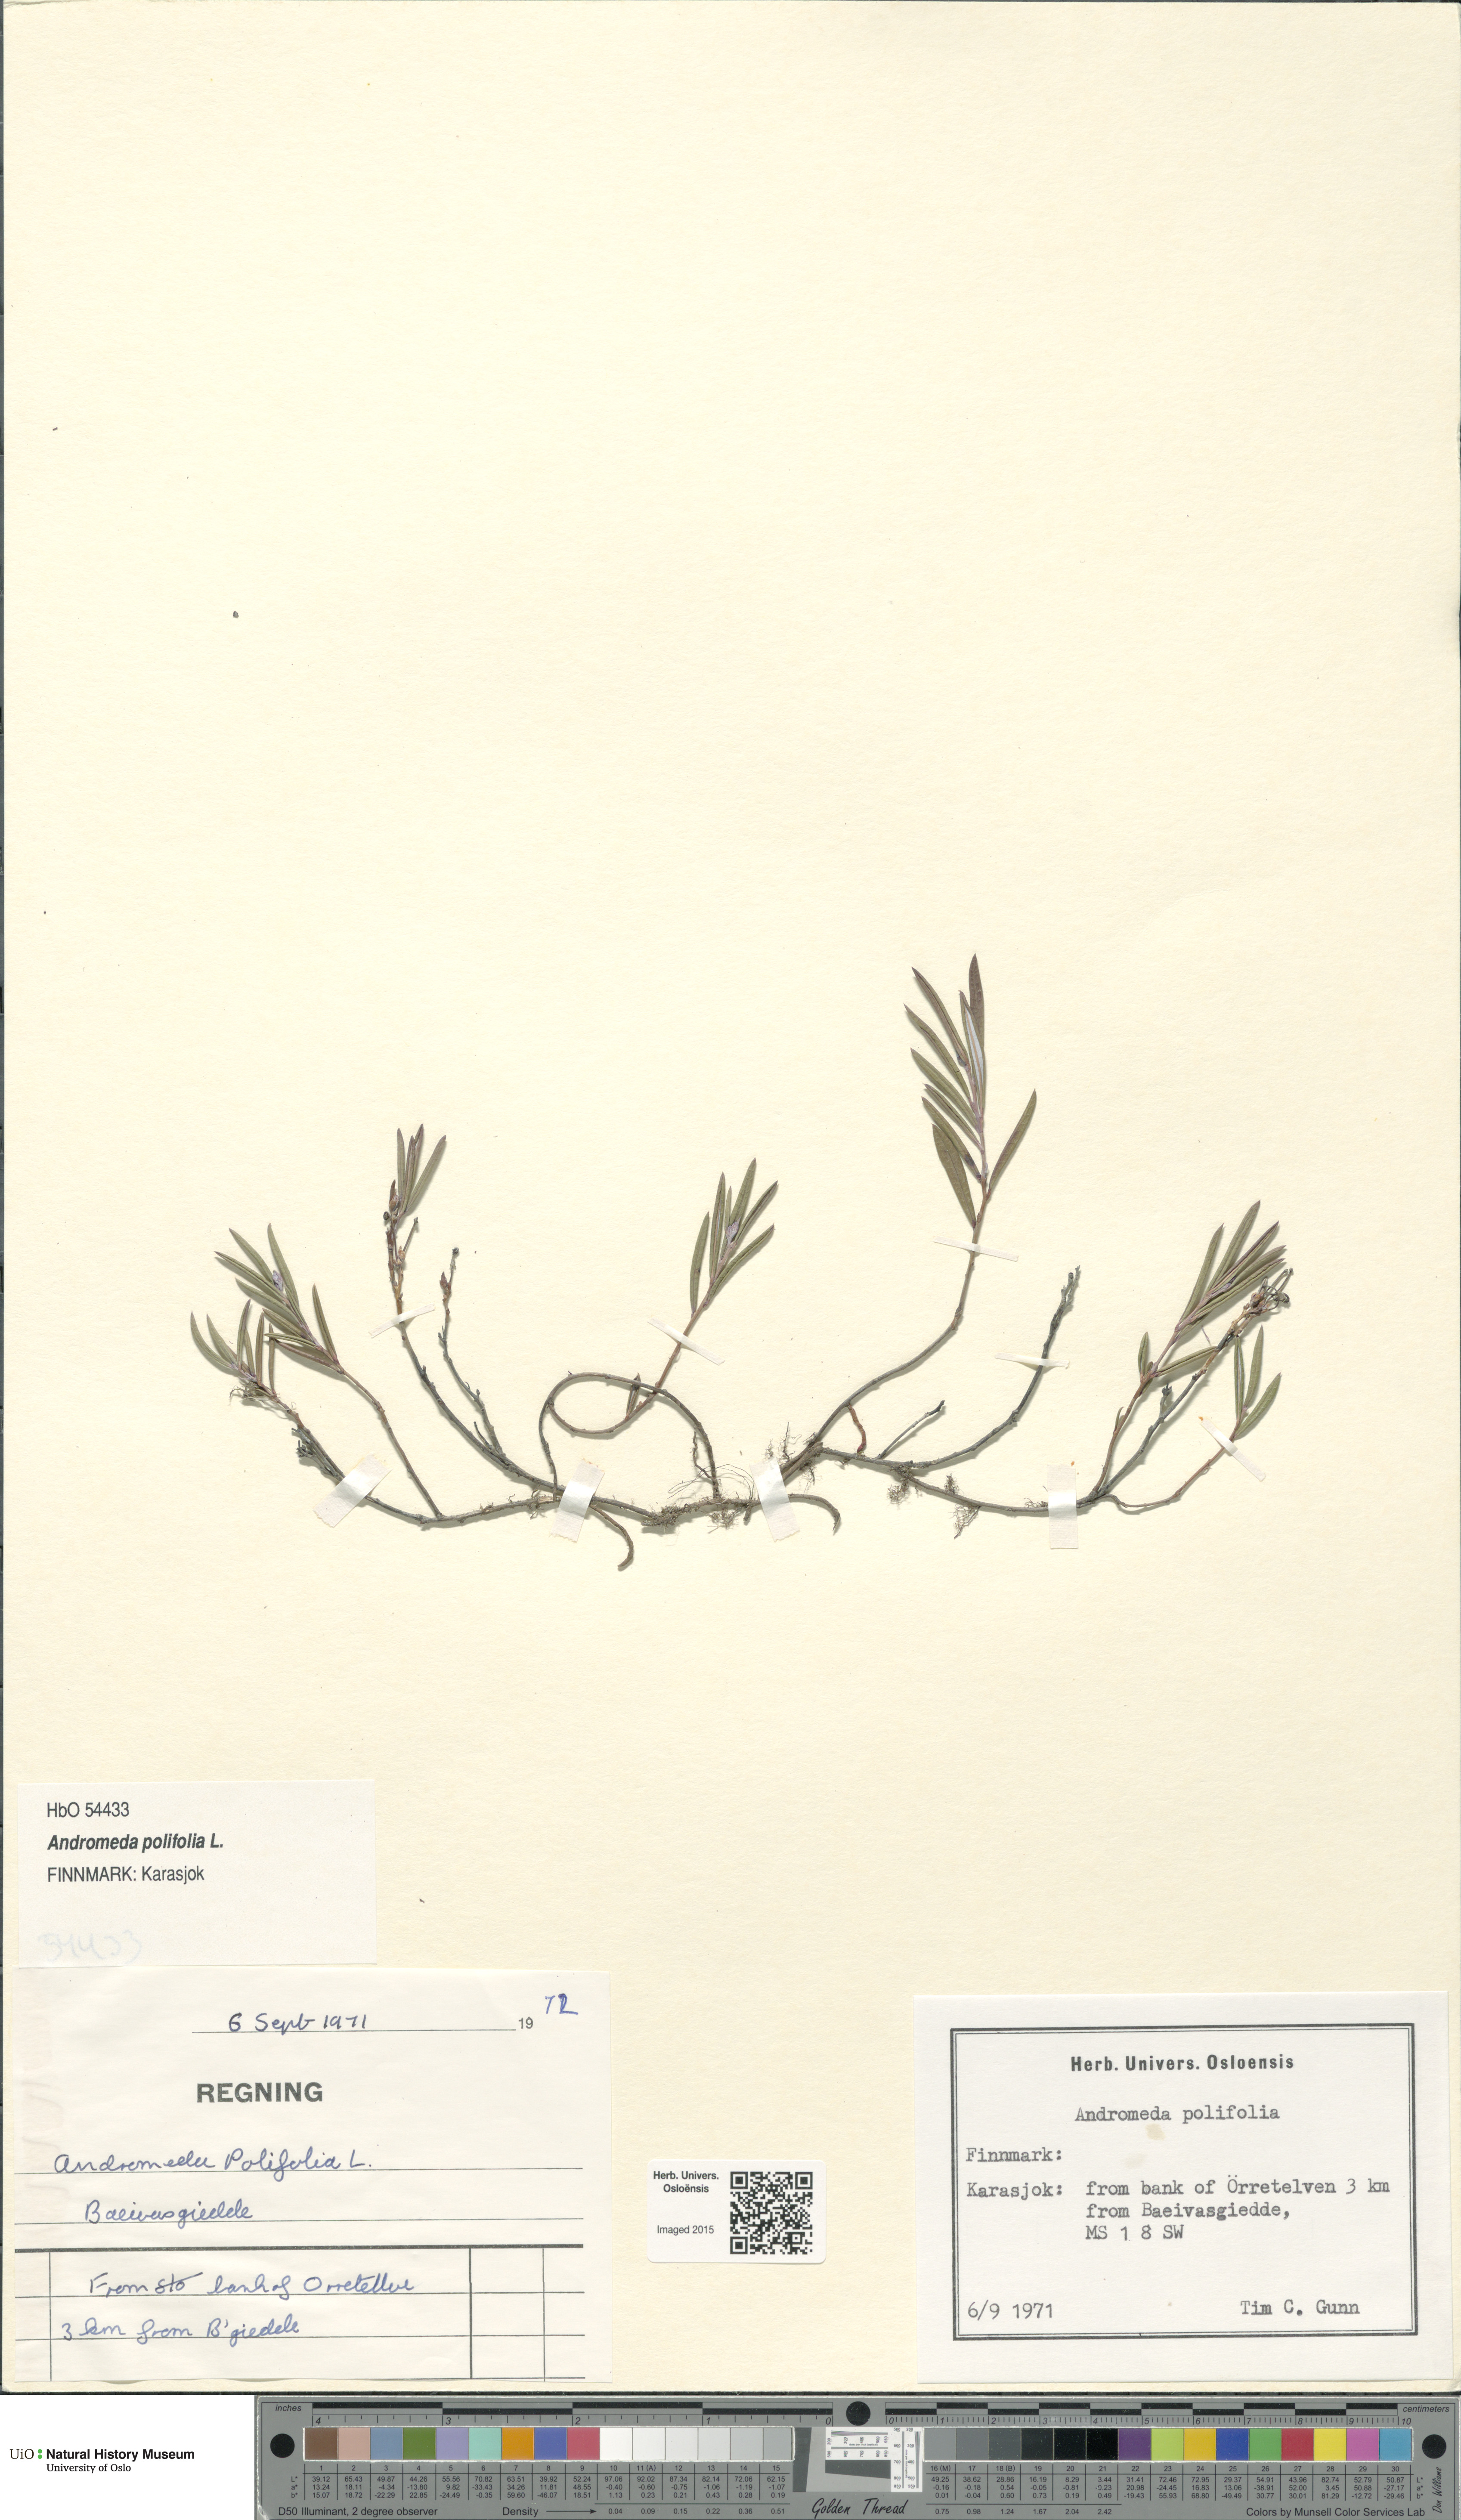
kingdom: Plantae
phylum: Tracheophyta
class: Magnoliopsida
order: Ericales
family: Ericaceae
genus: Andromeda
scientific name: Andromeda polifolia
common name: Bog-rosemary
